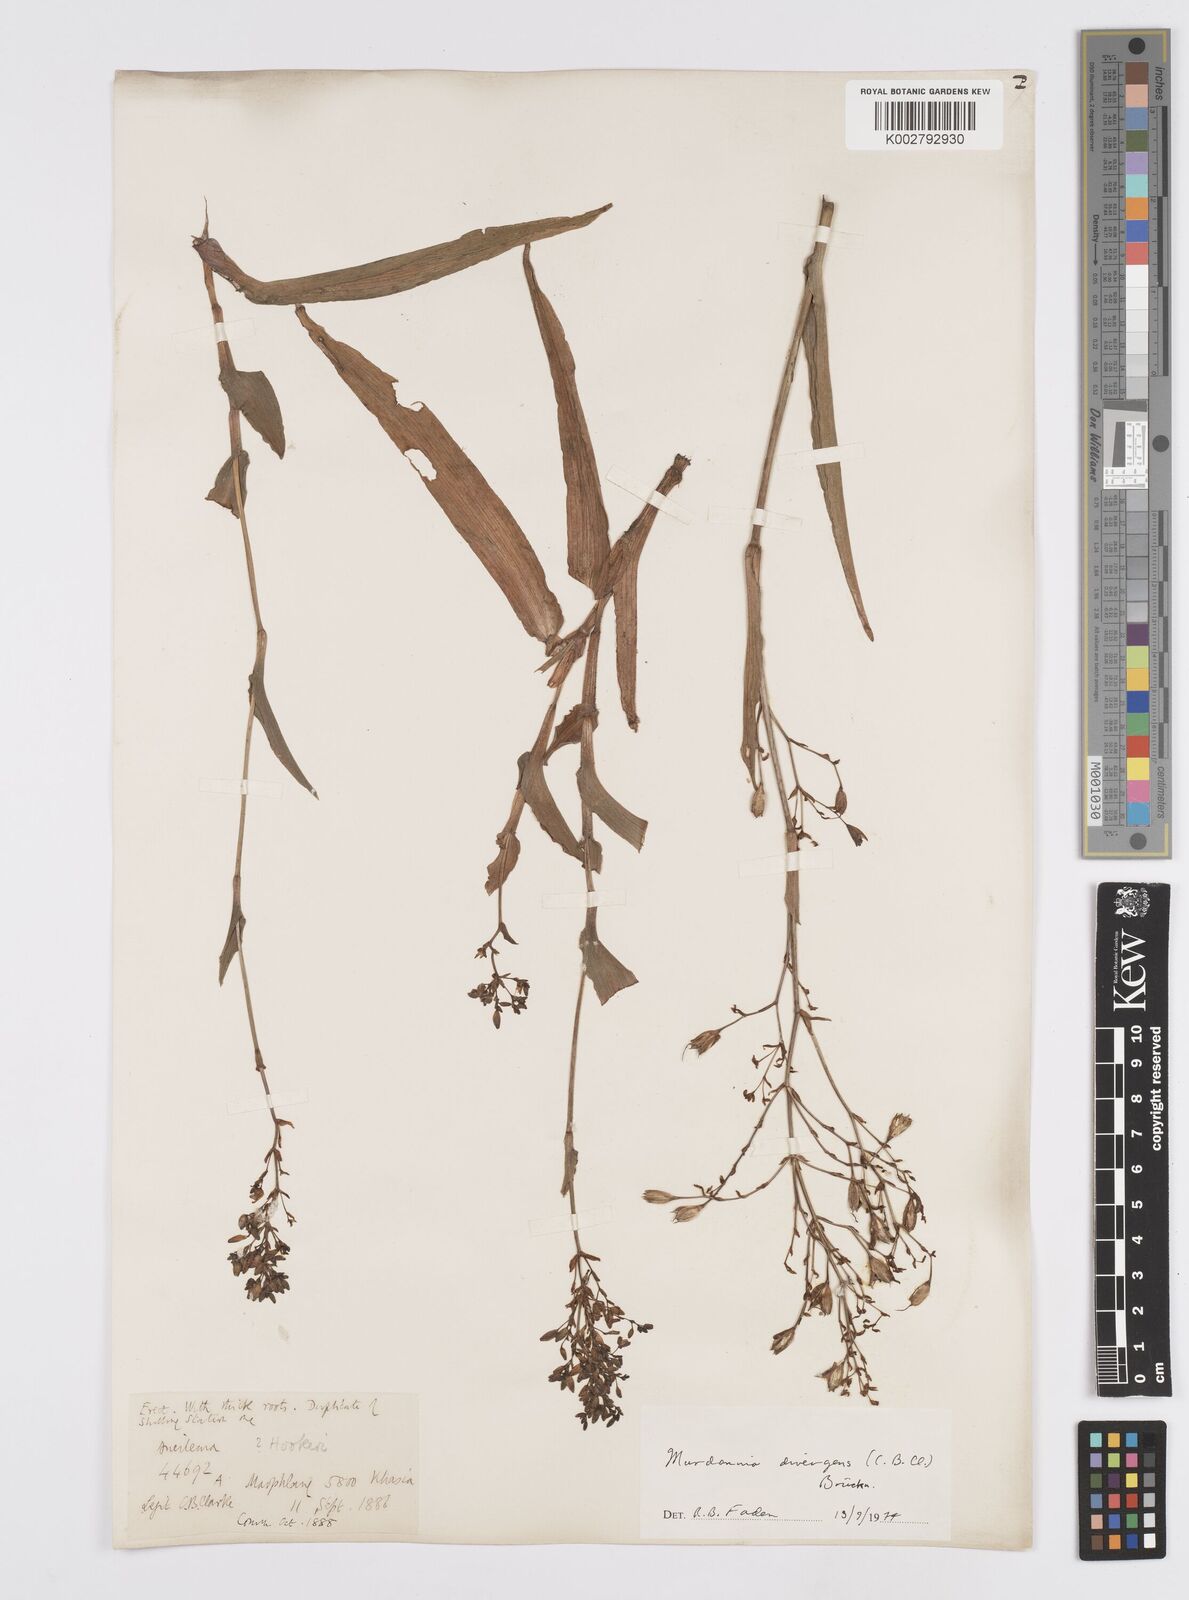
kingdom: Plantae
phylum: Tracheophyta
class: Liliopsida
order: Commelinales
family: Commelinaceae
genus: Murdannia
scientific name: Murdannia divergens
